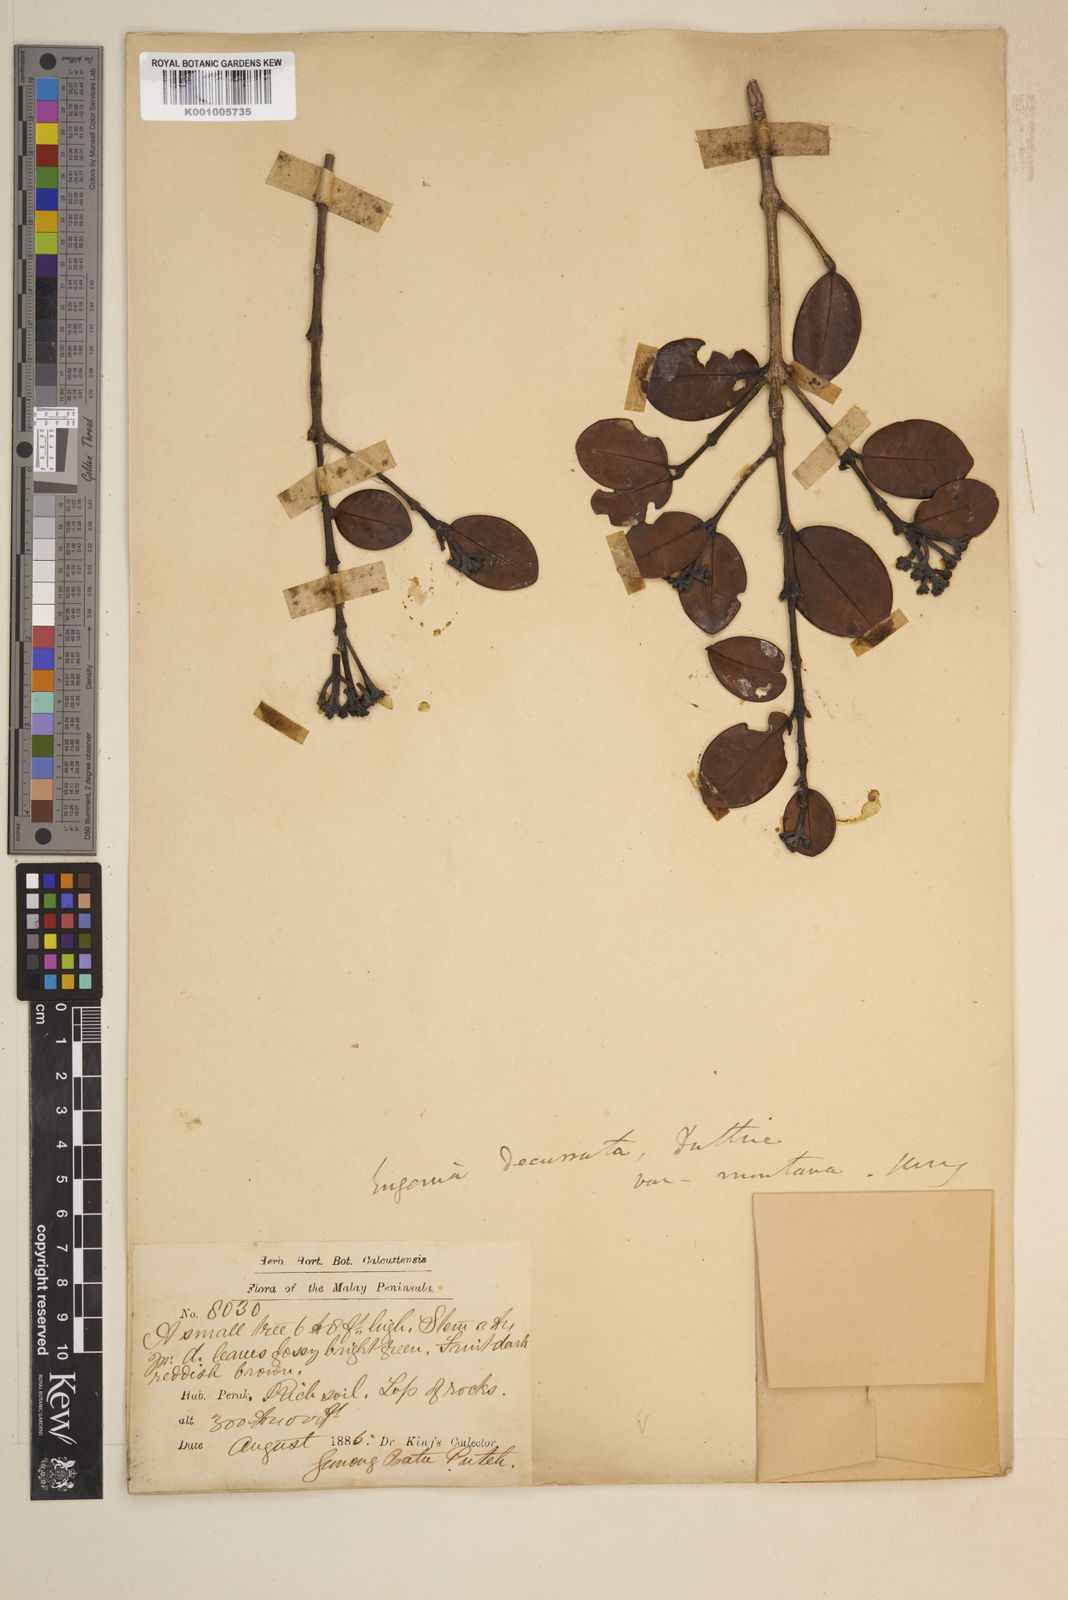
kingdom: Plantae
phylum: Tracheophyta
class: Magnoliopsida
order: Myrtales
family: Myrtaceae
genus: Syzygium
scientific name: Syzygium subdecussatum
